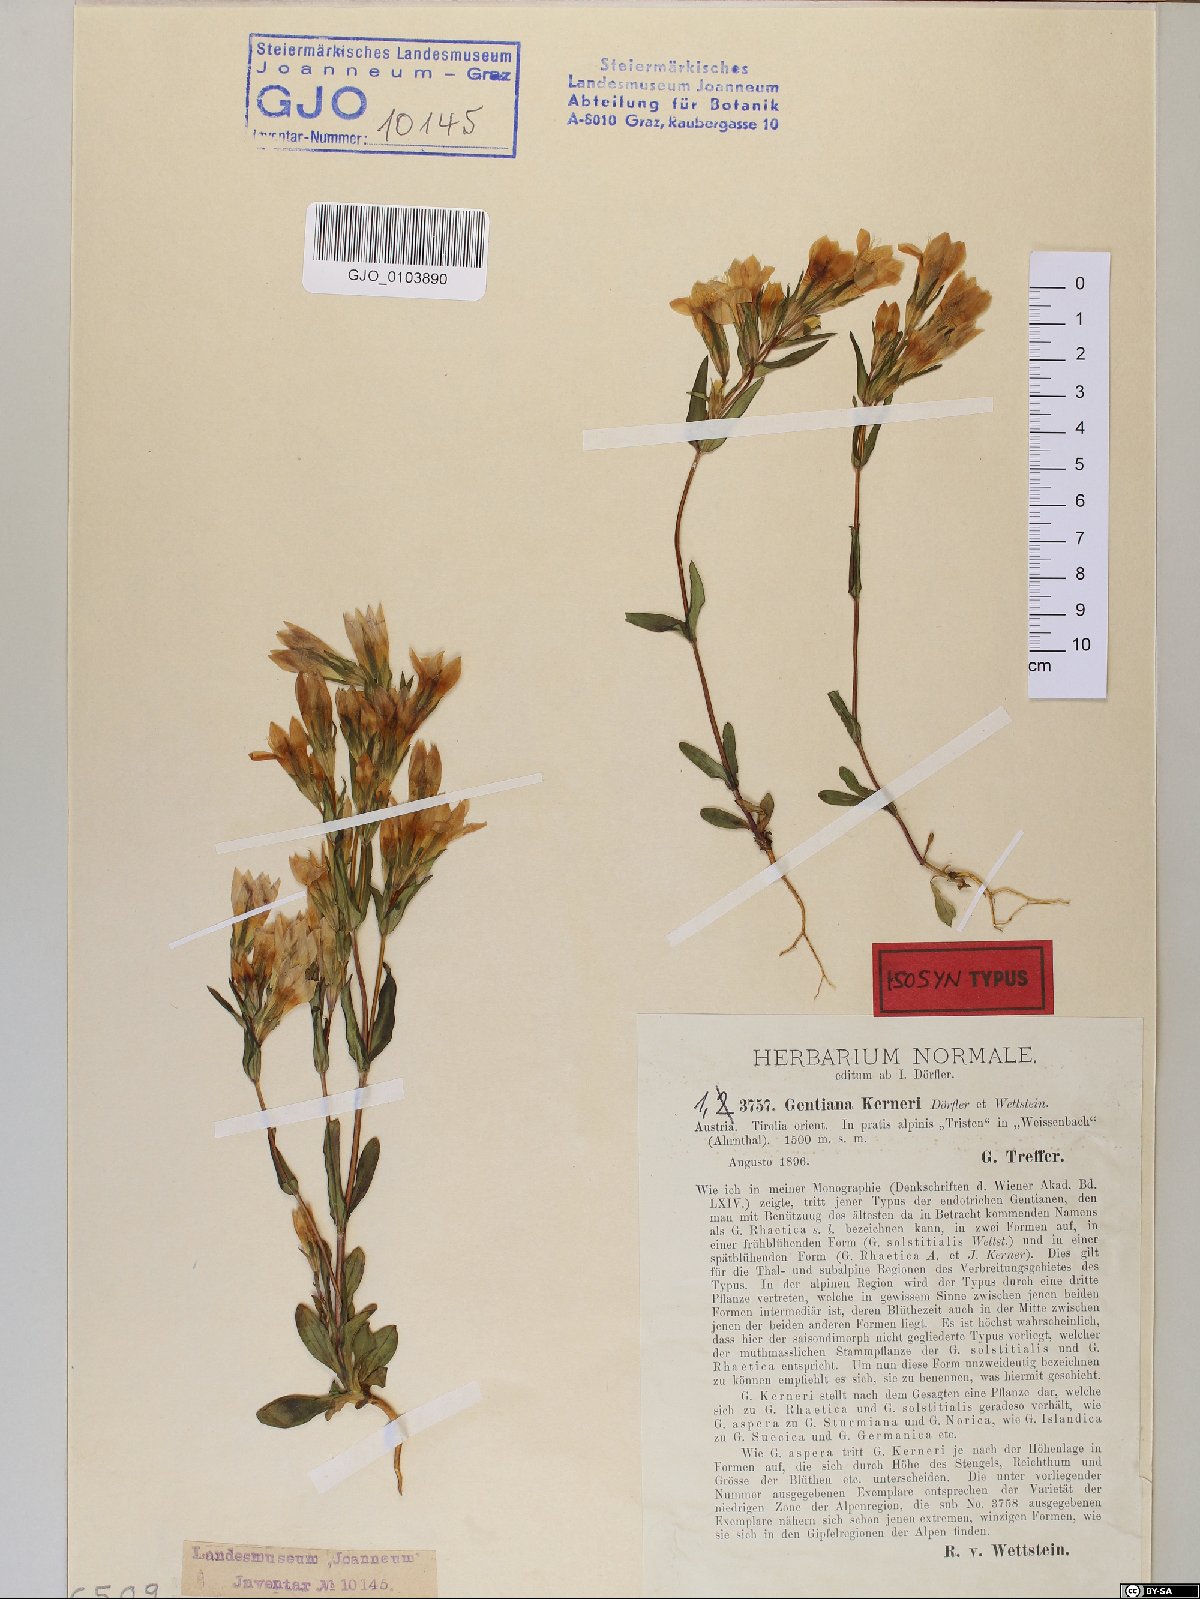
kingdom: Plantae
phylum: Tracheophyta
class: Magnoliopsida
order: Gentianales
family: Gentianaceae
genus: Gentianella
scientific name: Gentianella rhaetica
